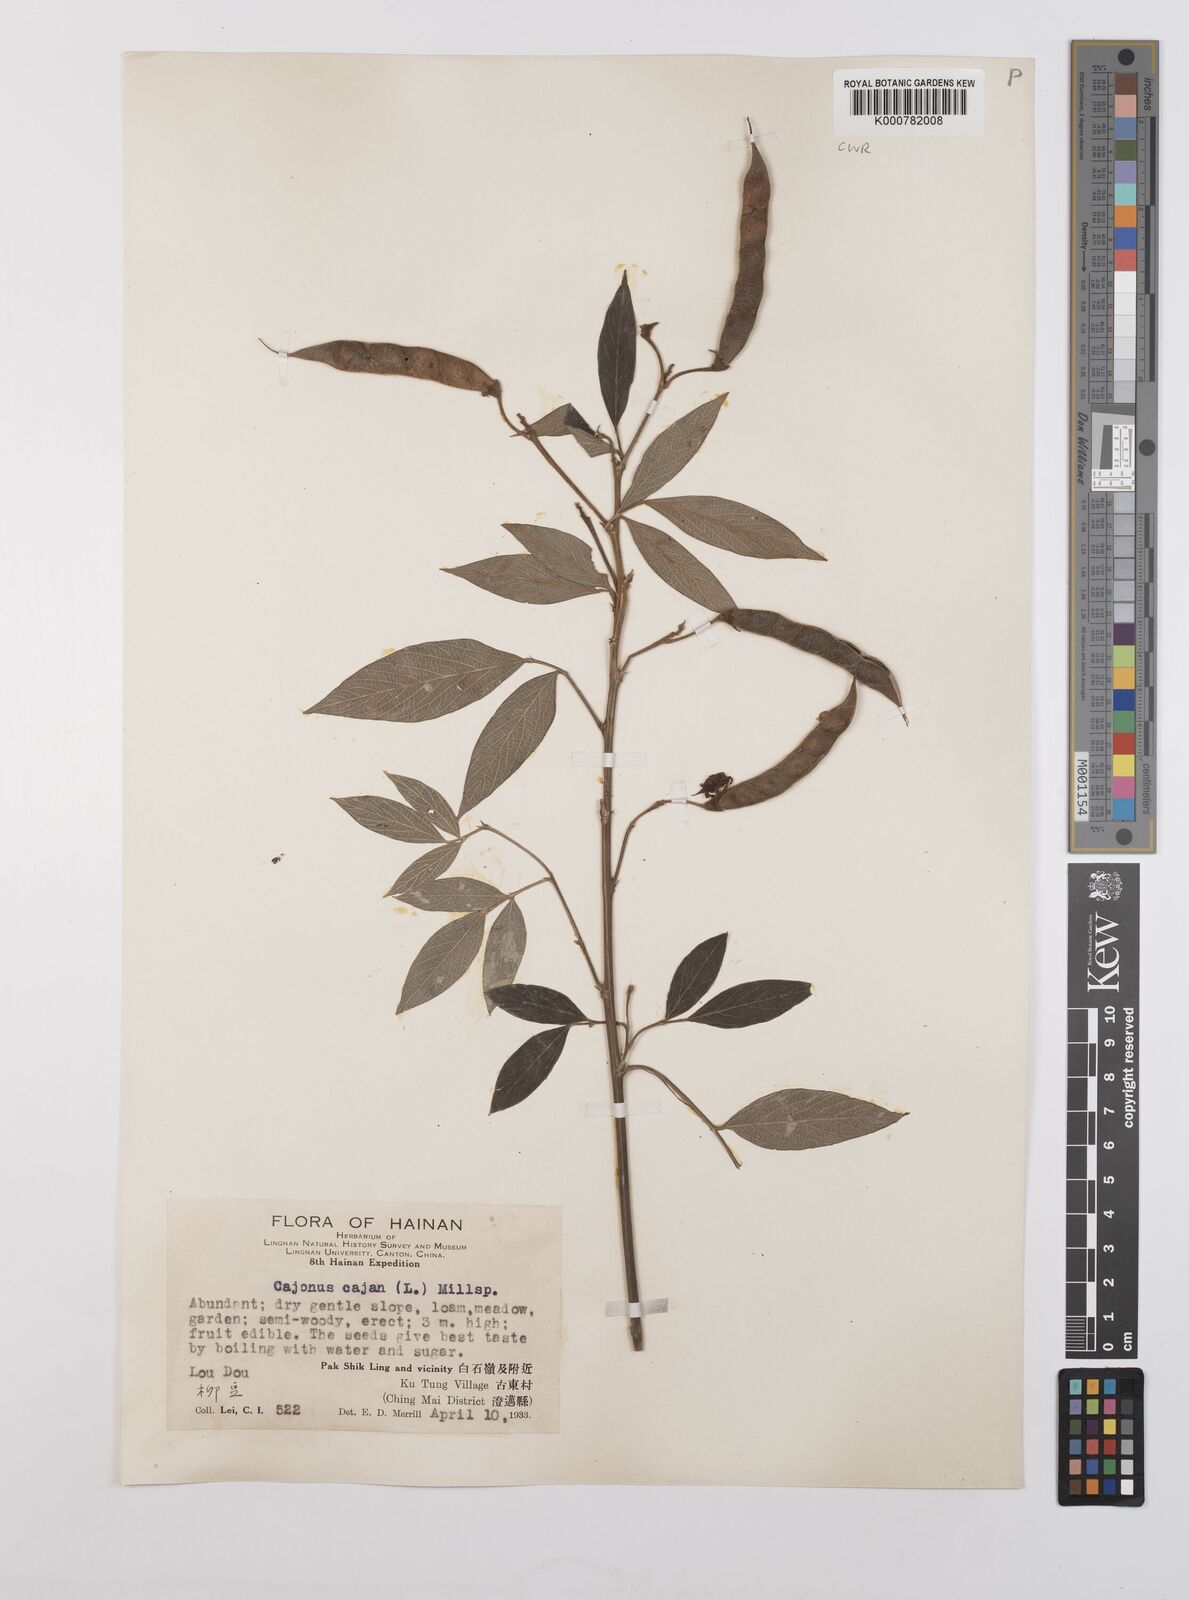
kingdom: Plantae
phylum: Tracheophyta
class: Magnoliopsida
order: Fabales
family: Fabaceae
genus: Cajanus
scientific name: Cajanus
